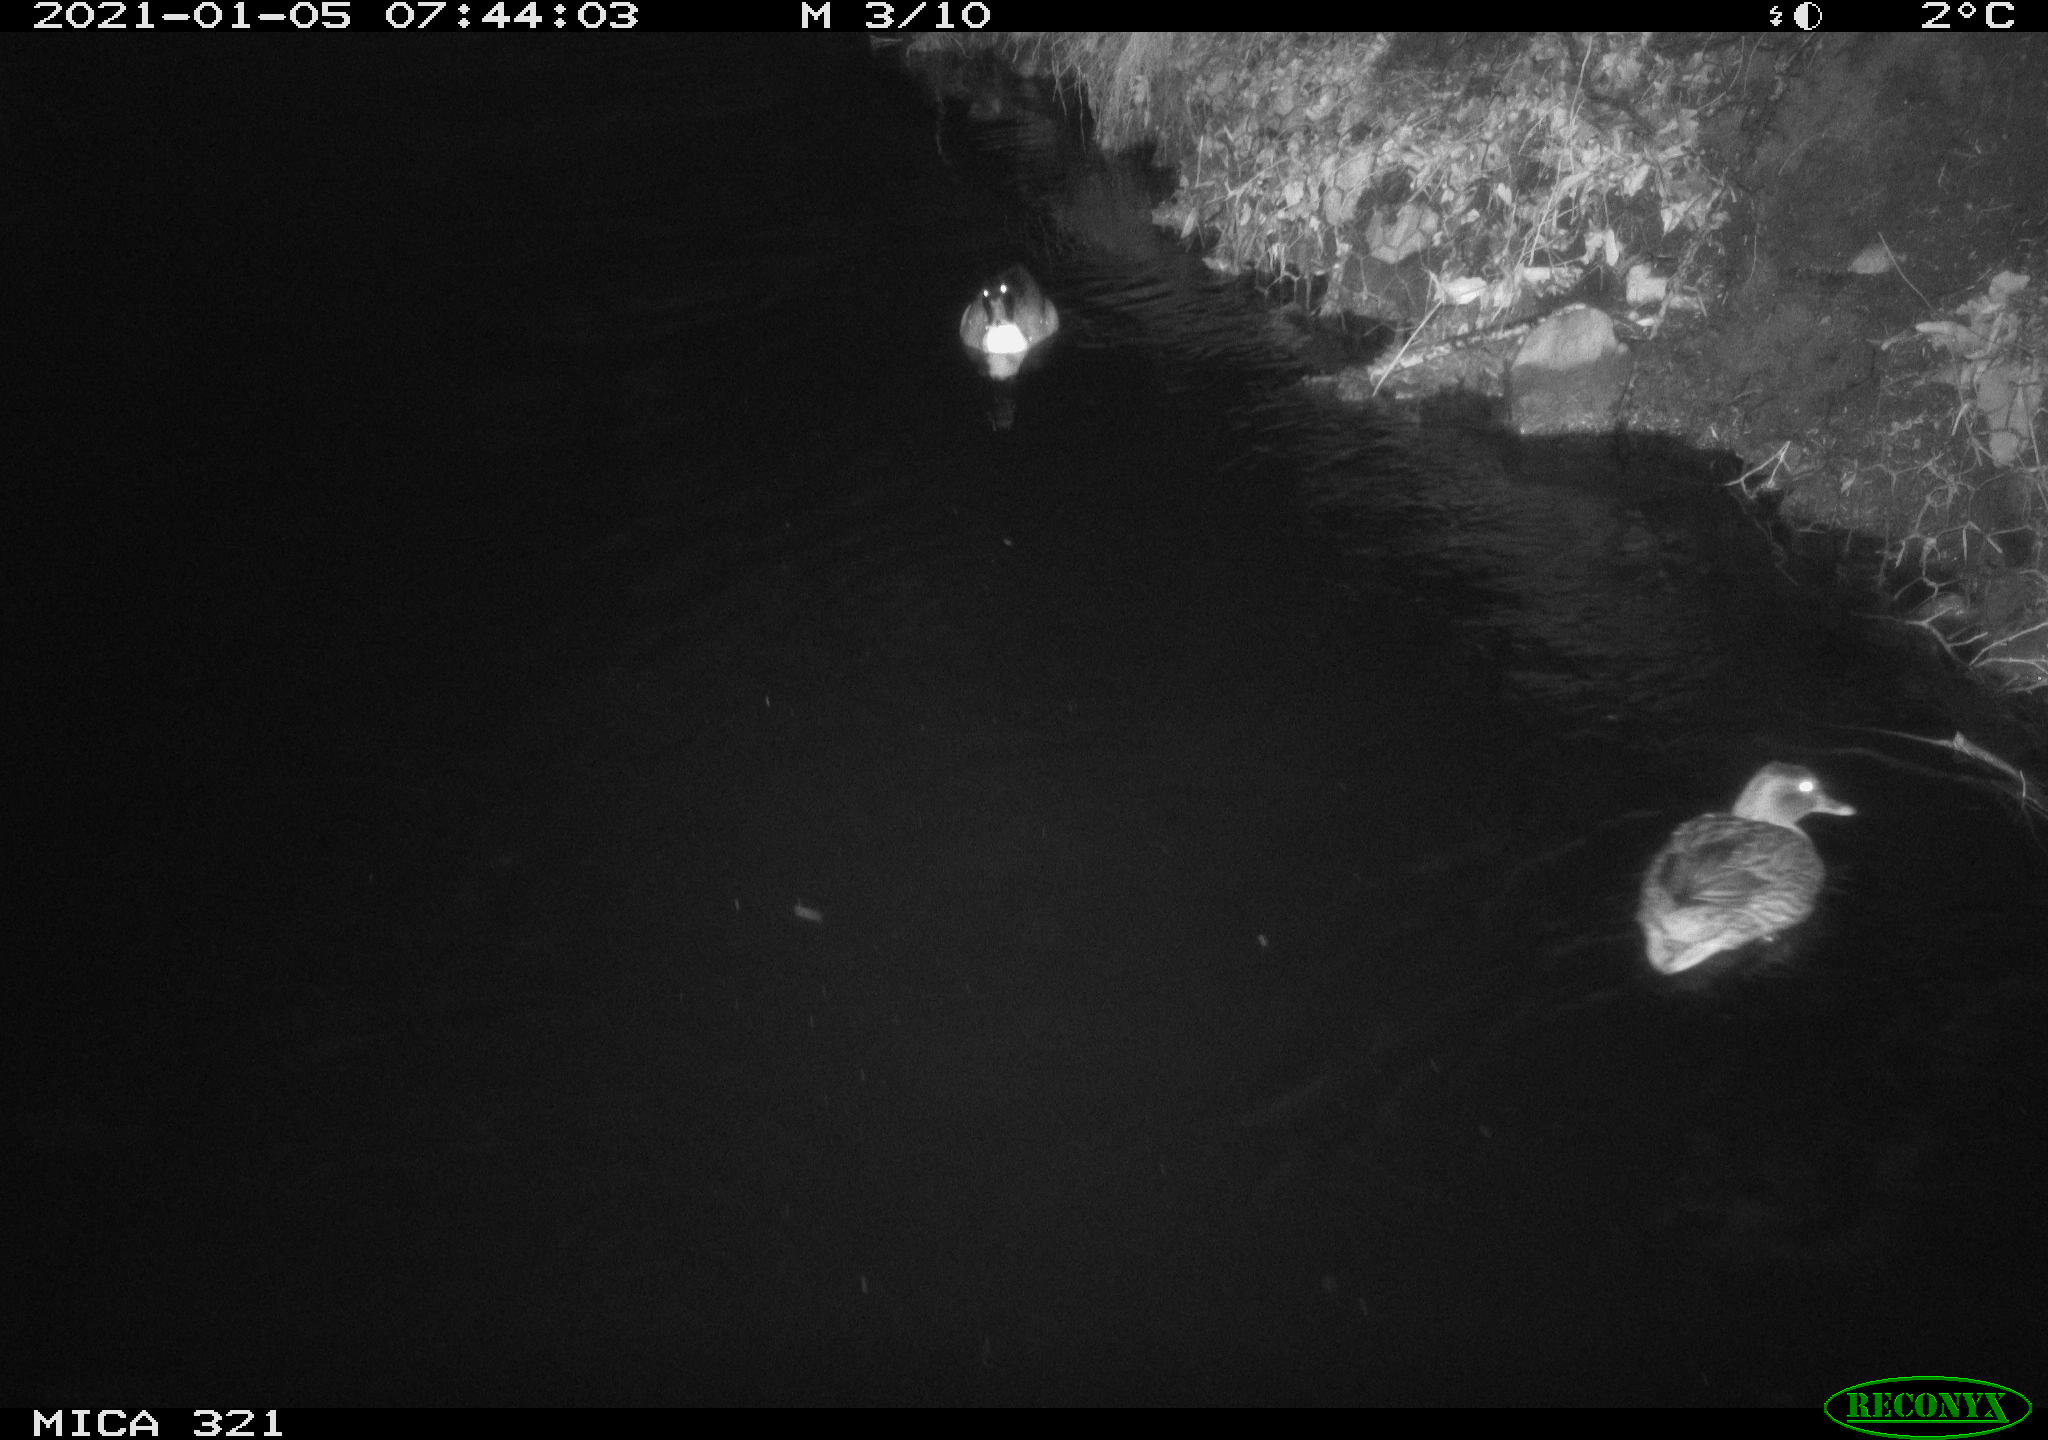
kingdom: Animalia
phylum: Chordata
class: Aves
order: Anseriformes
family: Anatidae
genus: Anas
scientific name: Anas platyrhynchos
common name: Mallard
